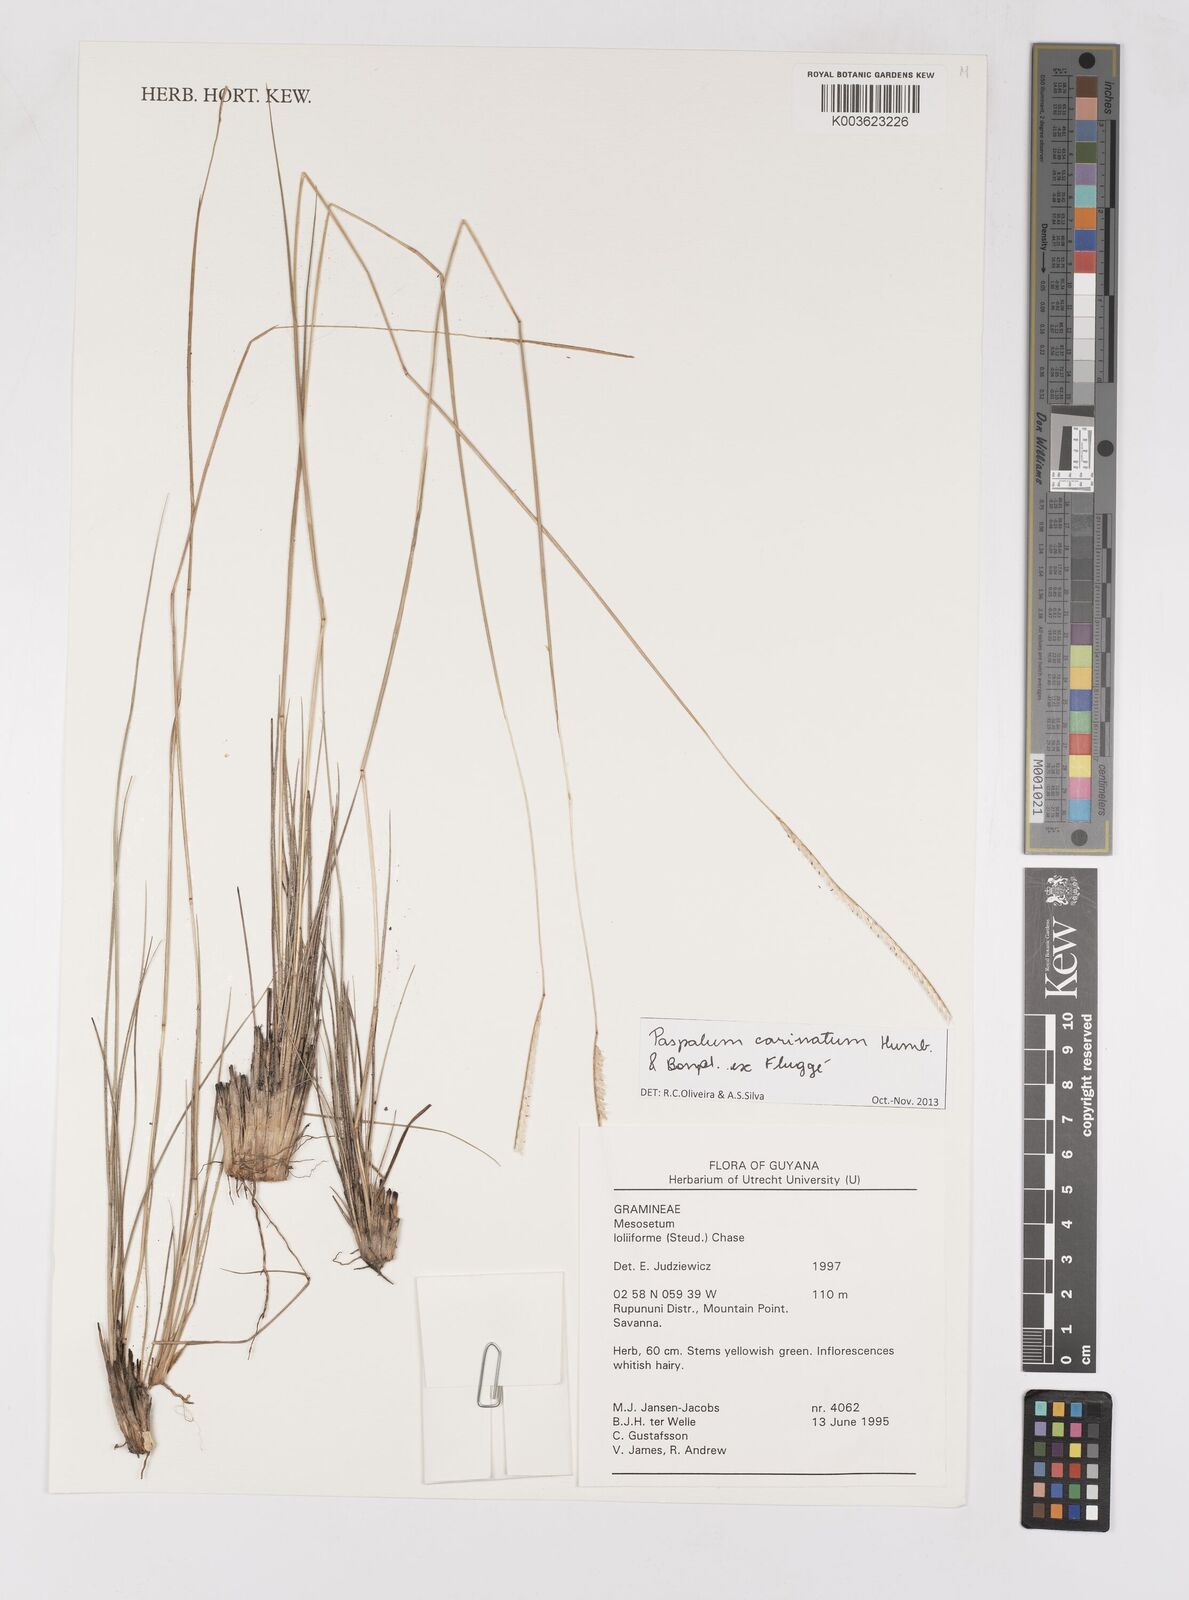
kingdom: Plantae
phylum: Tracheophyta
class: Liliopsida
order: Poales
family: Poaceae
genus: Paspalum
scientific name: Paspalum carinatum
